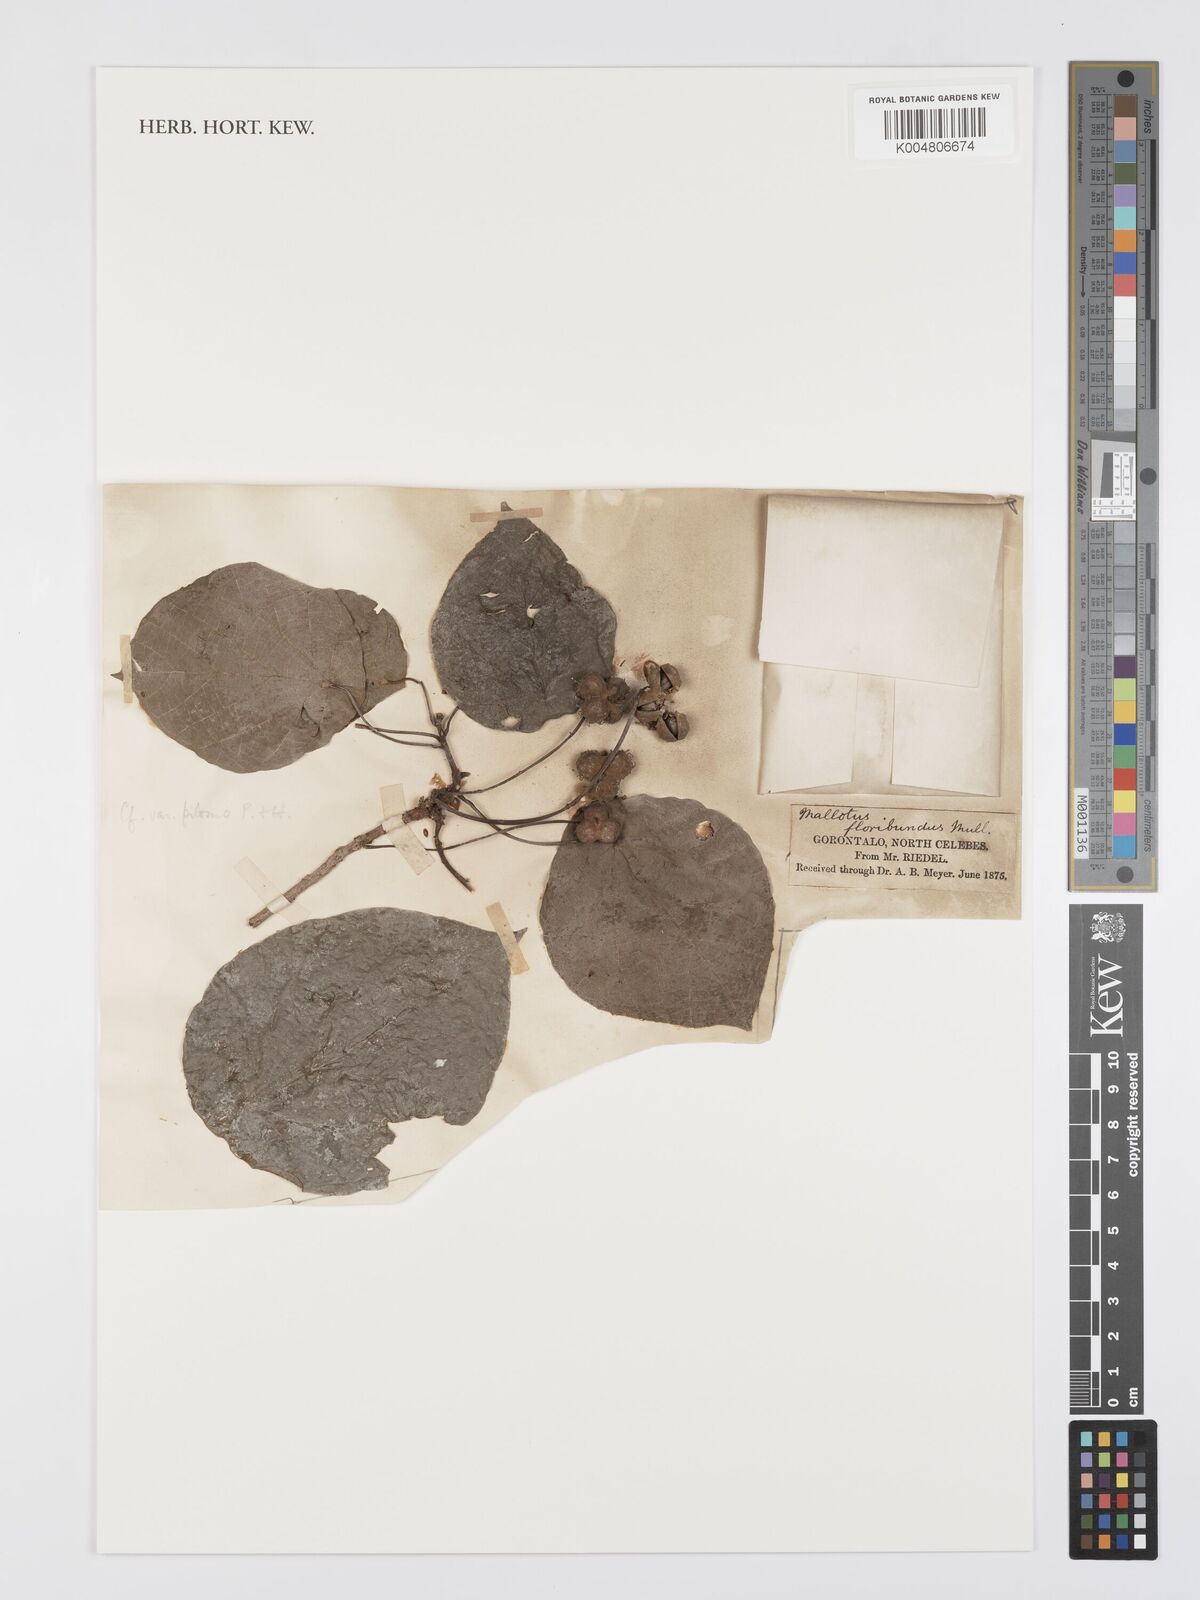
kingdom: Plantae
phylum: Tracheophyta
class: Magnoliopsida
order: Malpighiales
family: Euphorbiaceae
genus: Mallotus
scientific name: Mallotus floribundus
